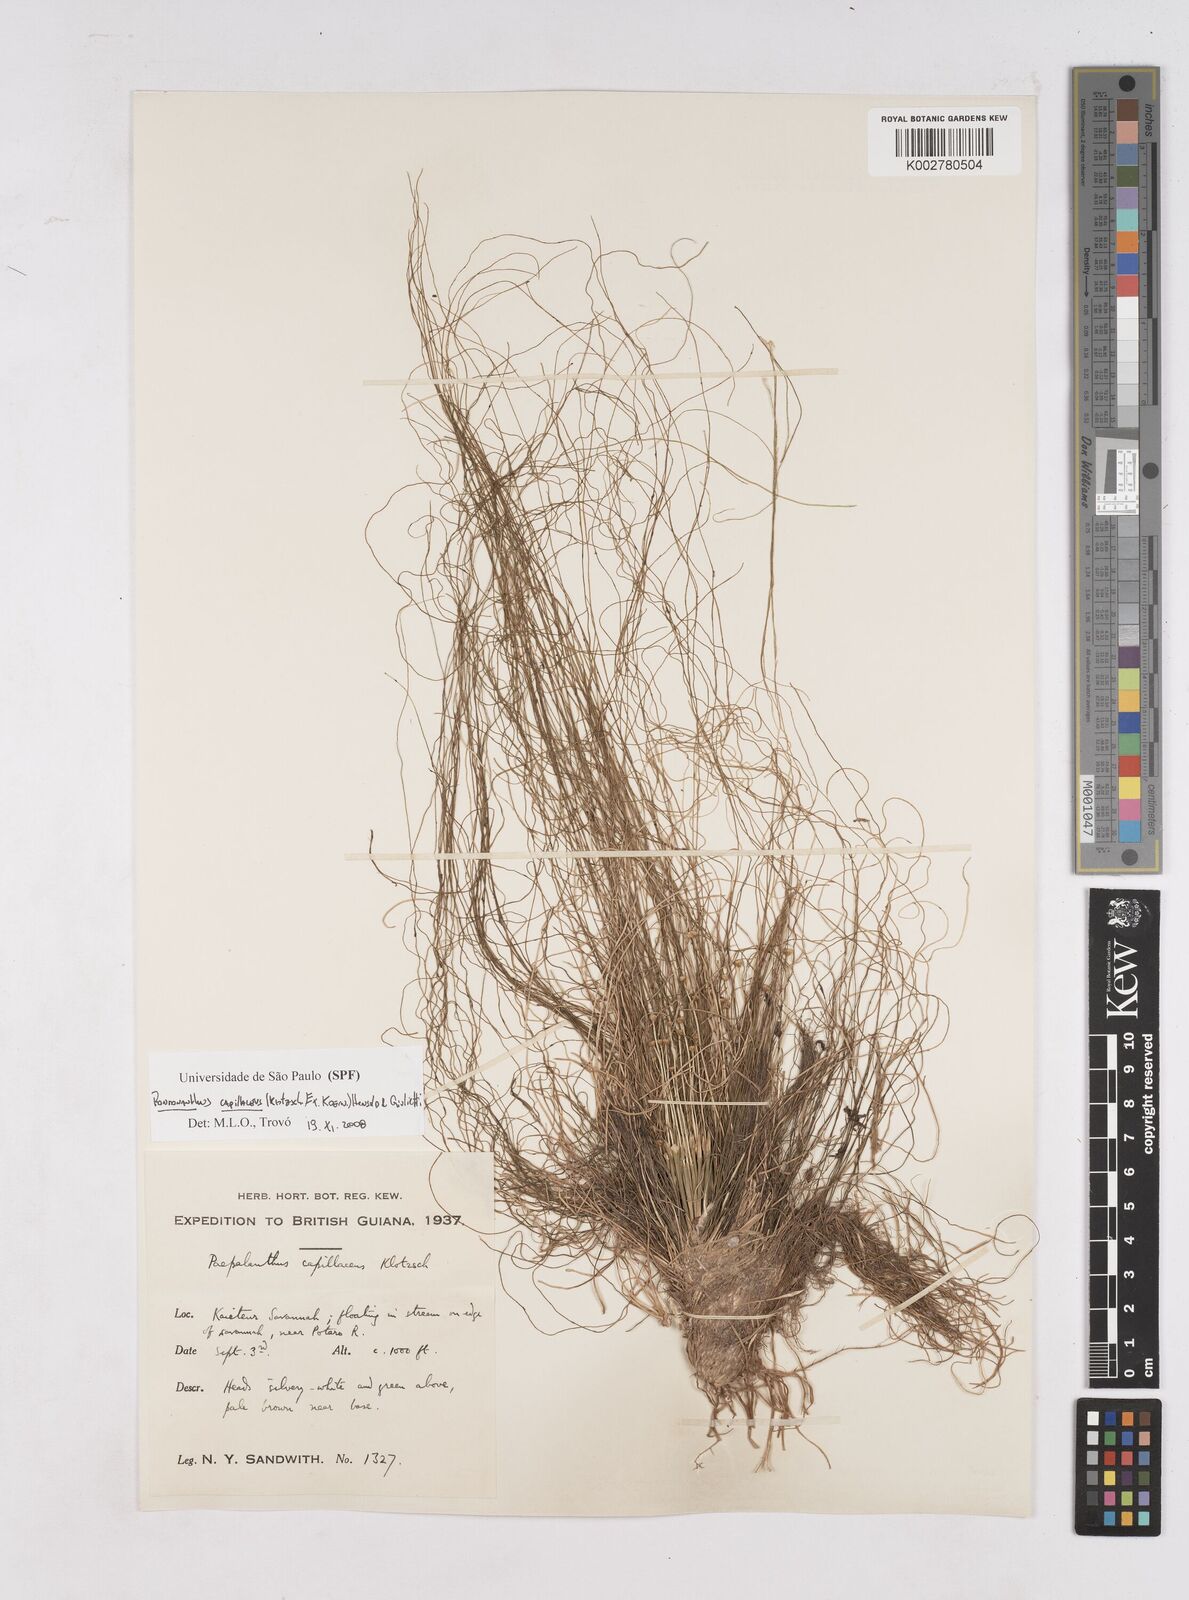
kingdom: Plantae
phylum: Tracheophyta
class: Liliopsida
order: Poales
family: Eriocaulaceae
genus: Rondonanthus
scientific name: Rondonanthus capillaceus
